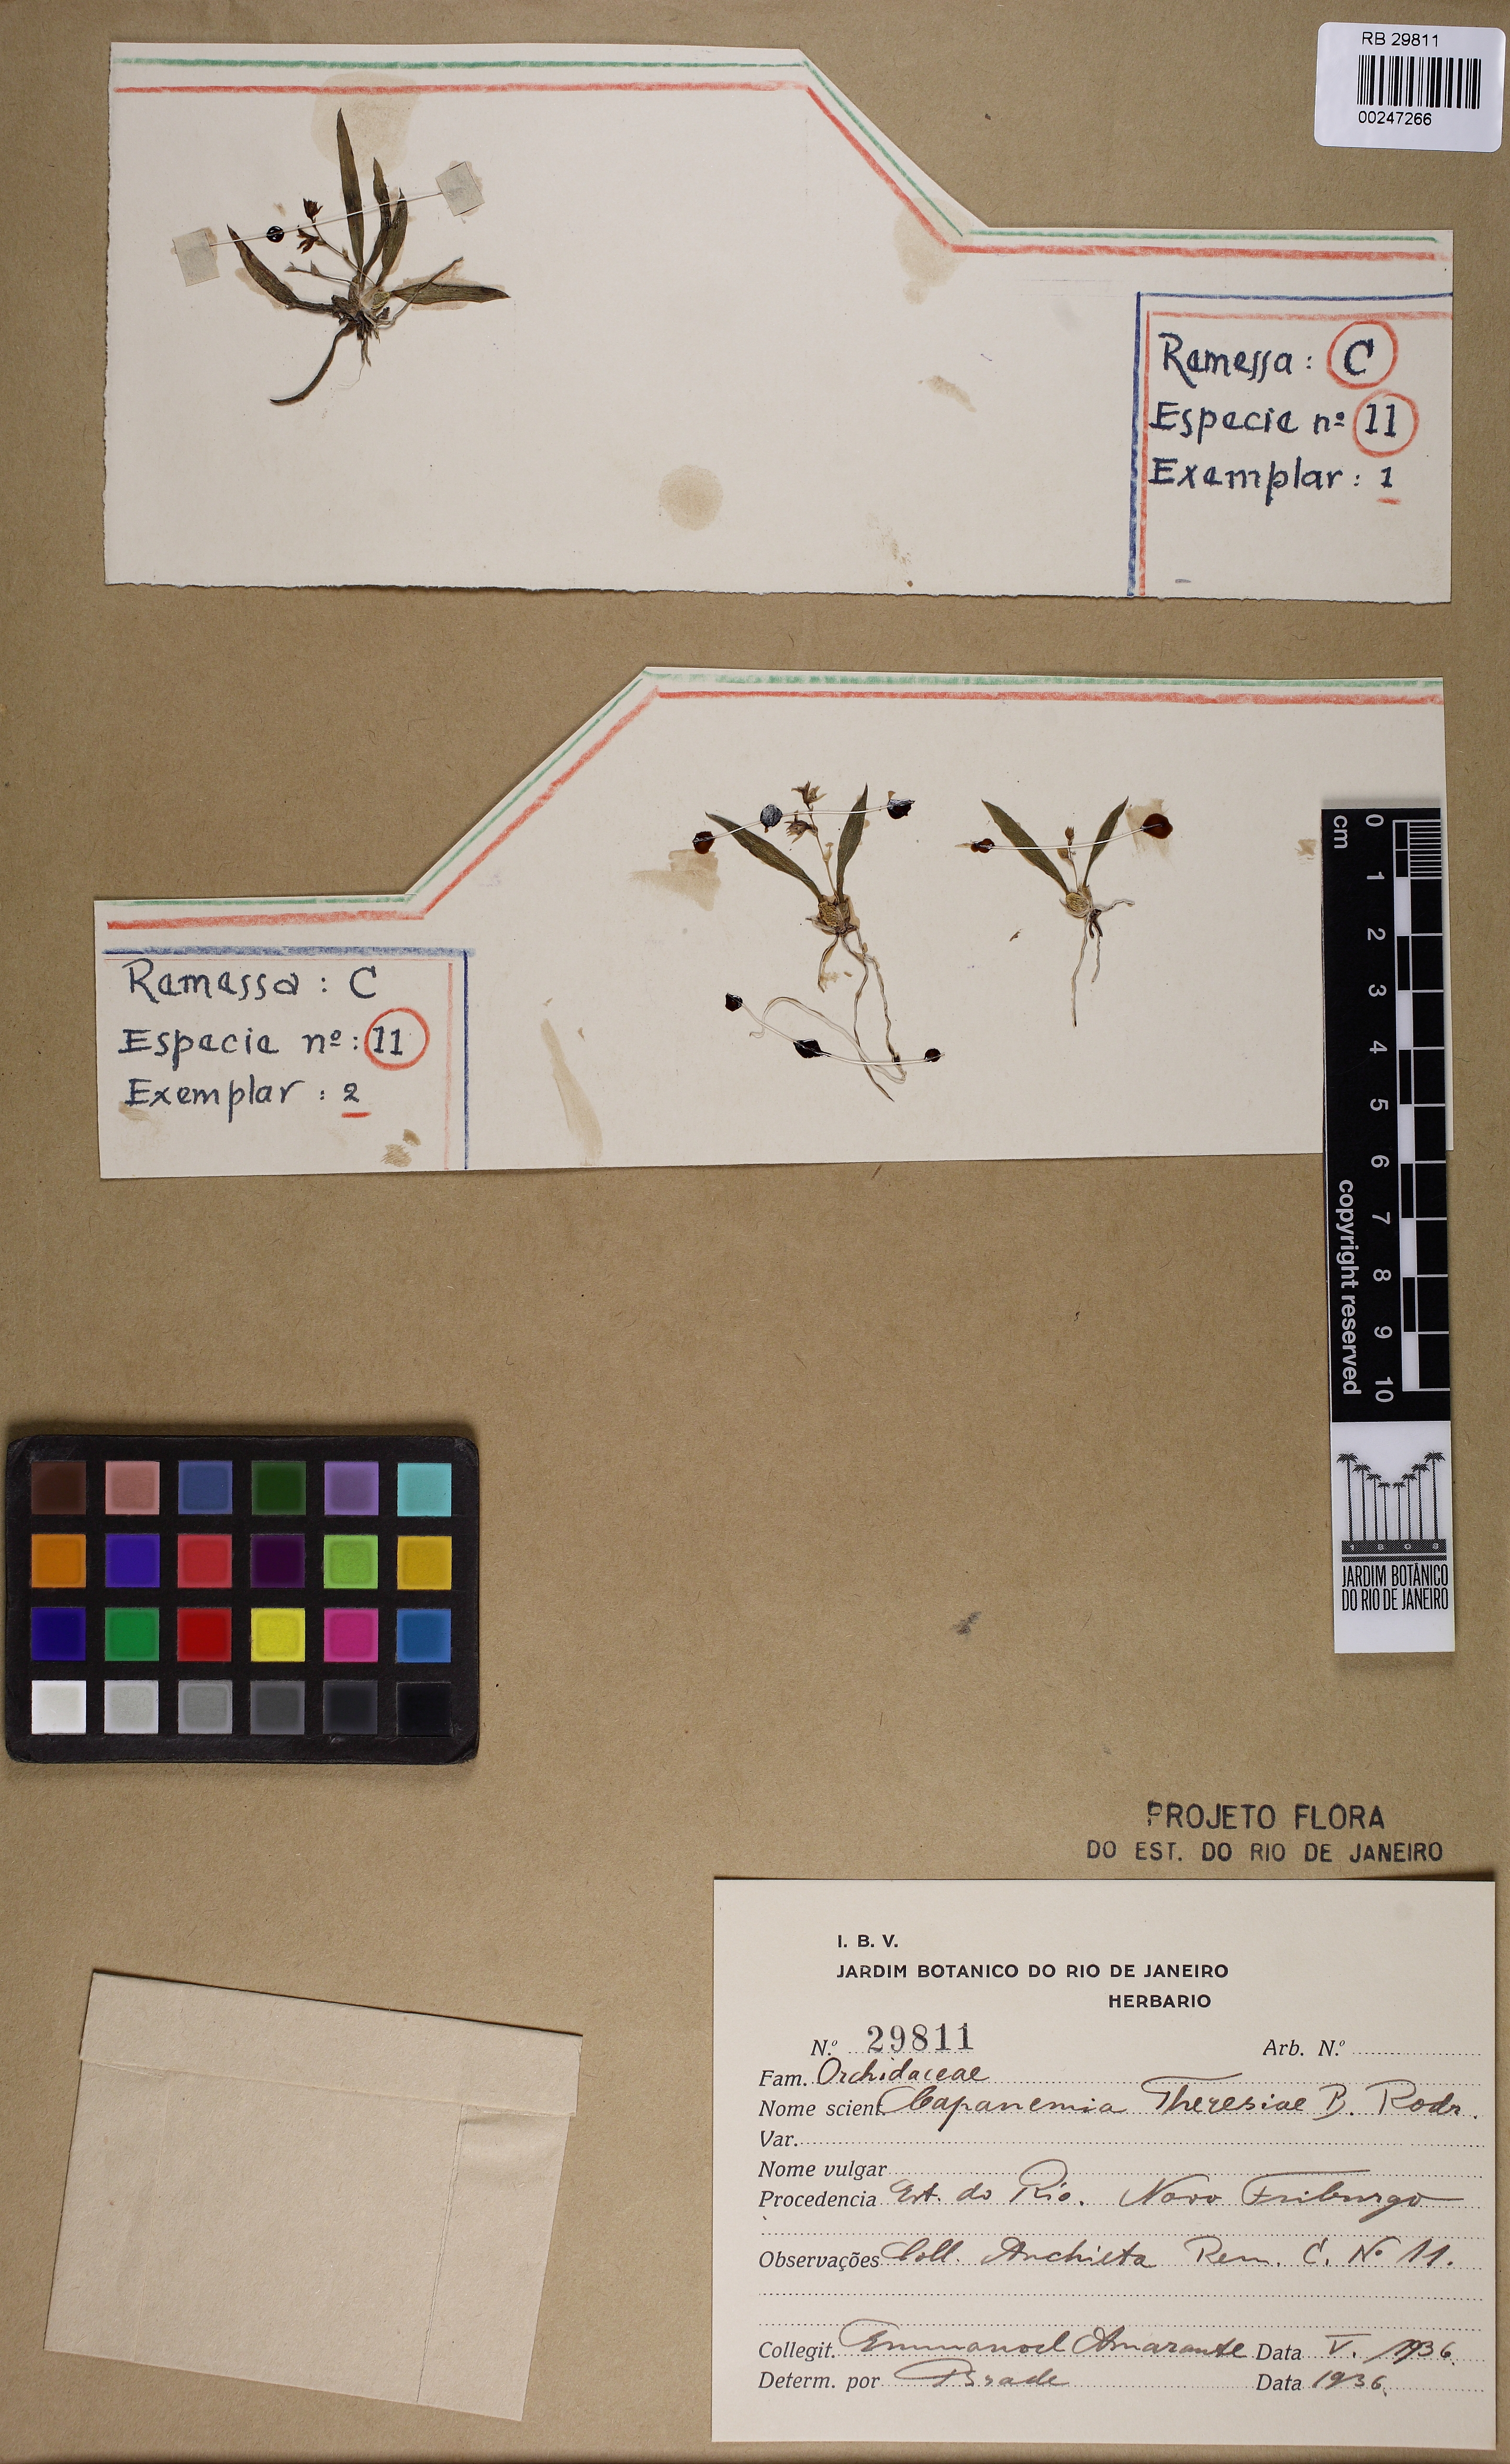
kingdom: Plantae
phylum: Tracheophyta
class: Liliopsida
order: Asparagales
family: Orchidaceae
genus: Capanemia
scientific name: Capanemia thereziae
